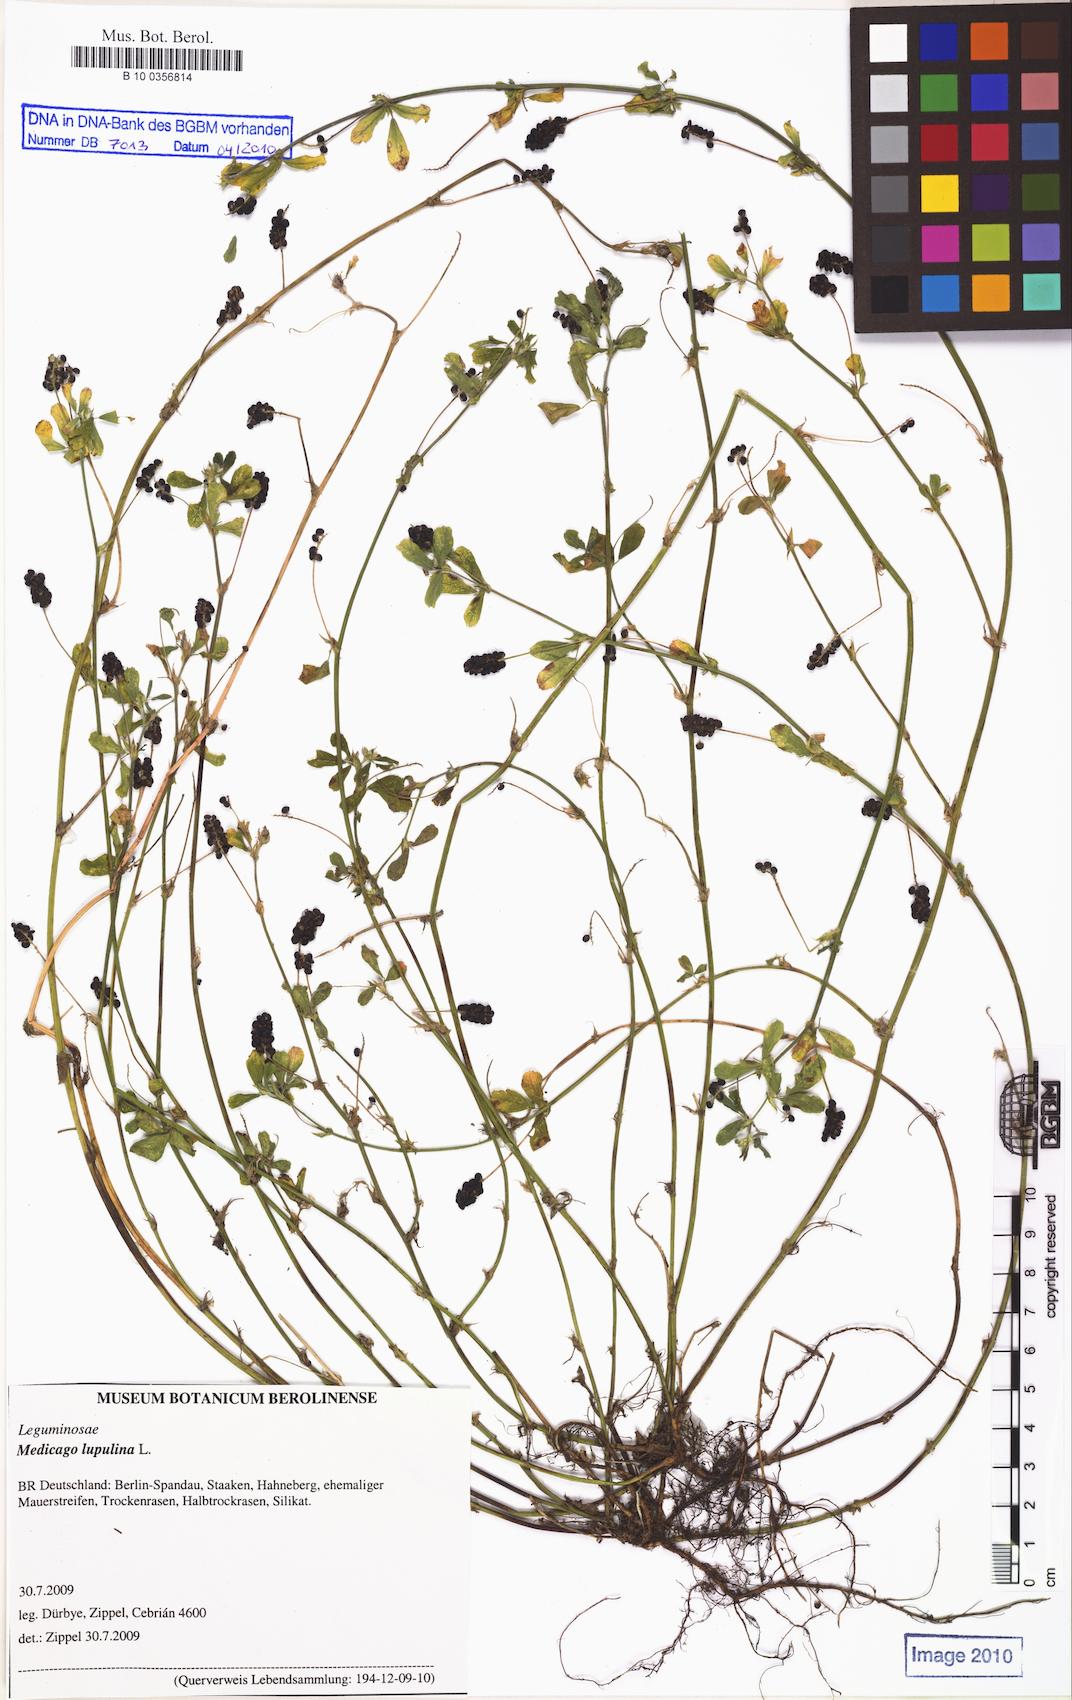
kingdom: Plantae
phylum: Tracheophyta
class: Magnoliopsida
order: Fabales
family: Fabaceae
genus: Medicago
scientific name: Medicago lupulina
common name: Black medick
